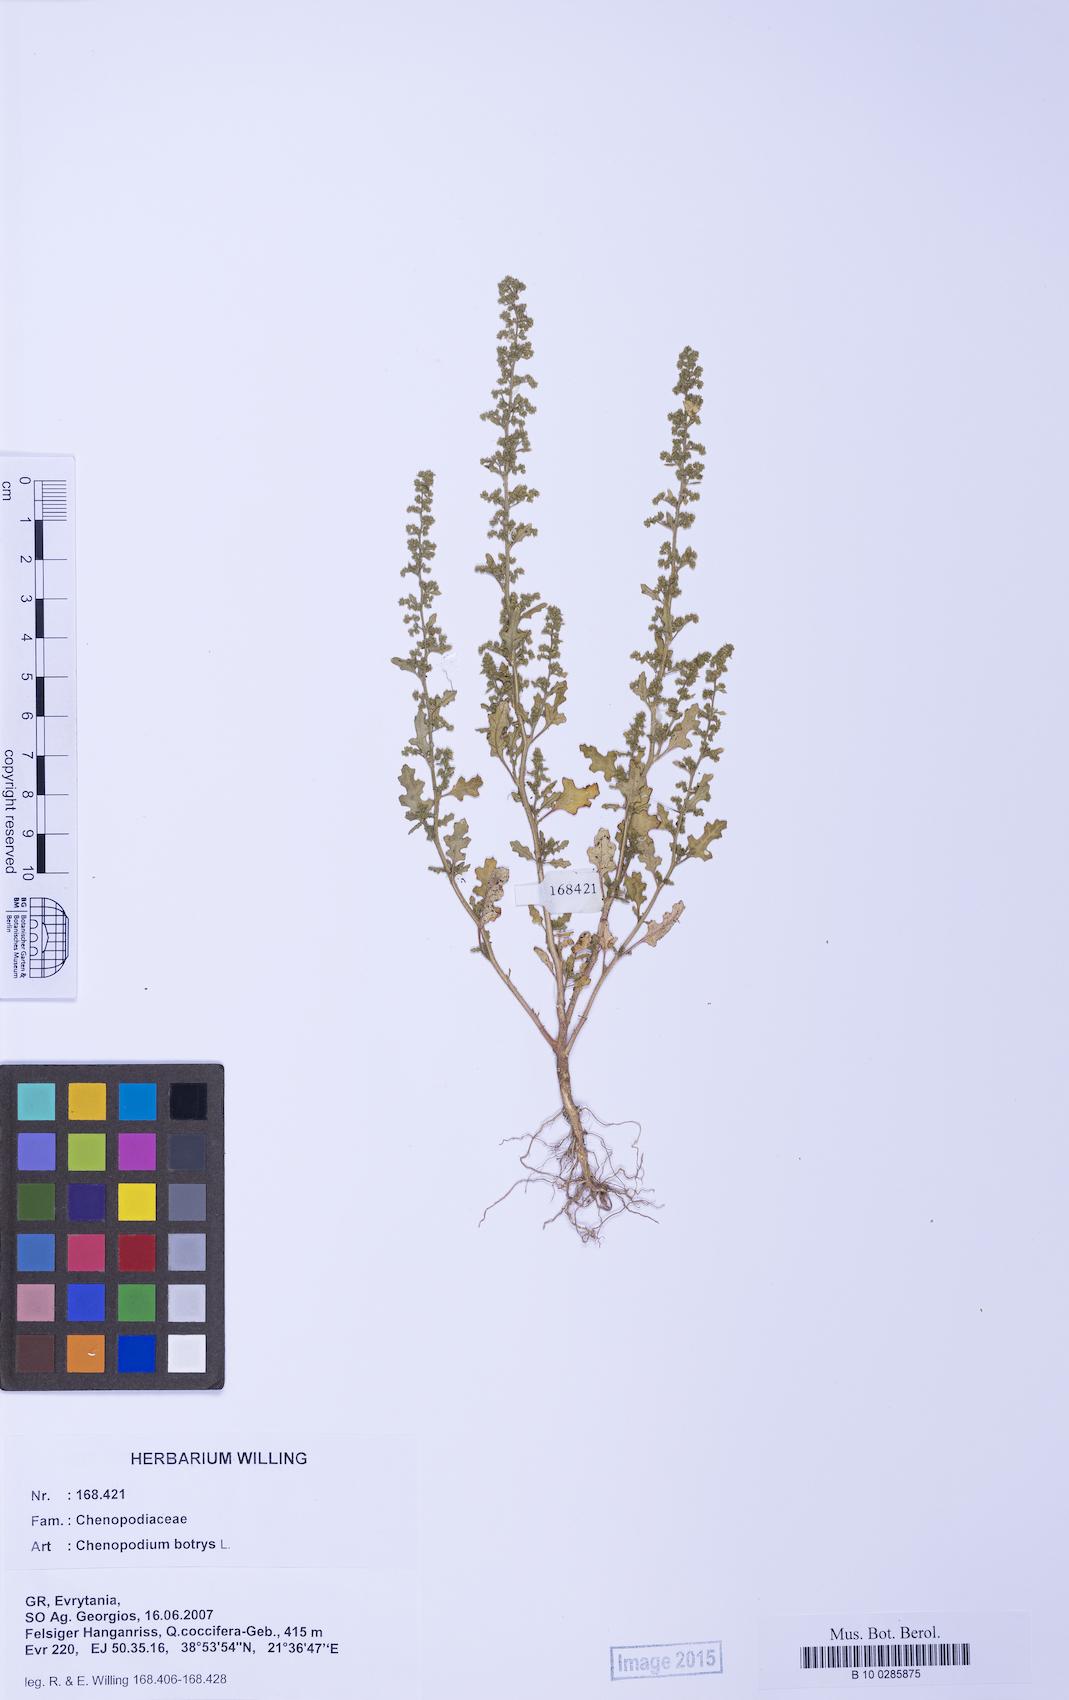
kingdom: Plantae
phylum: Tracheophyta
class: Magnoliopsida
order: Caryophyllales
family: Amaranthaceae
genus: Dysphania
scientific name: Dysphania botrys
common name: Feather-geranium
